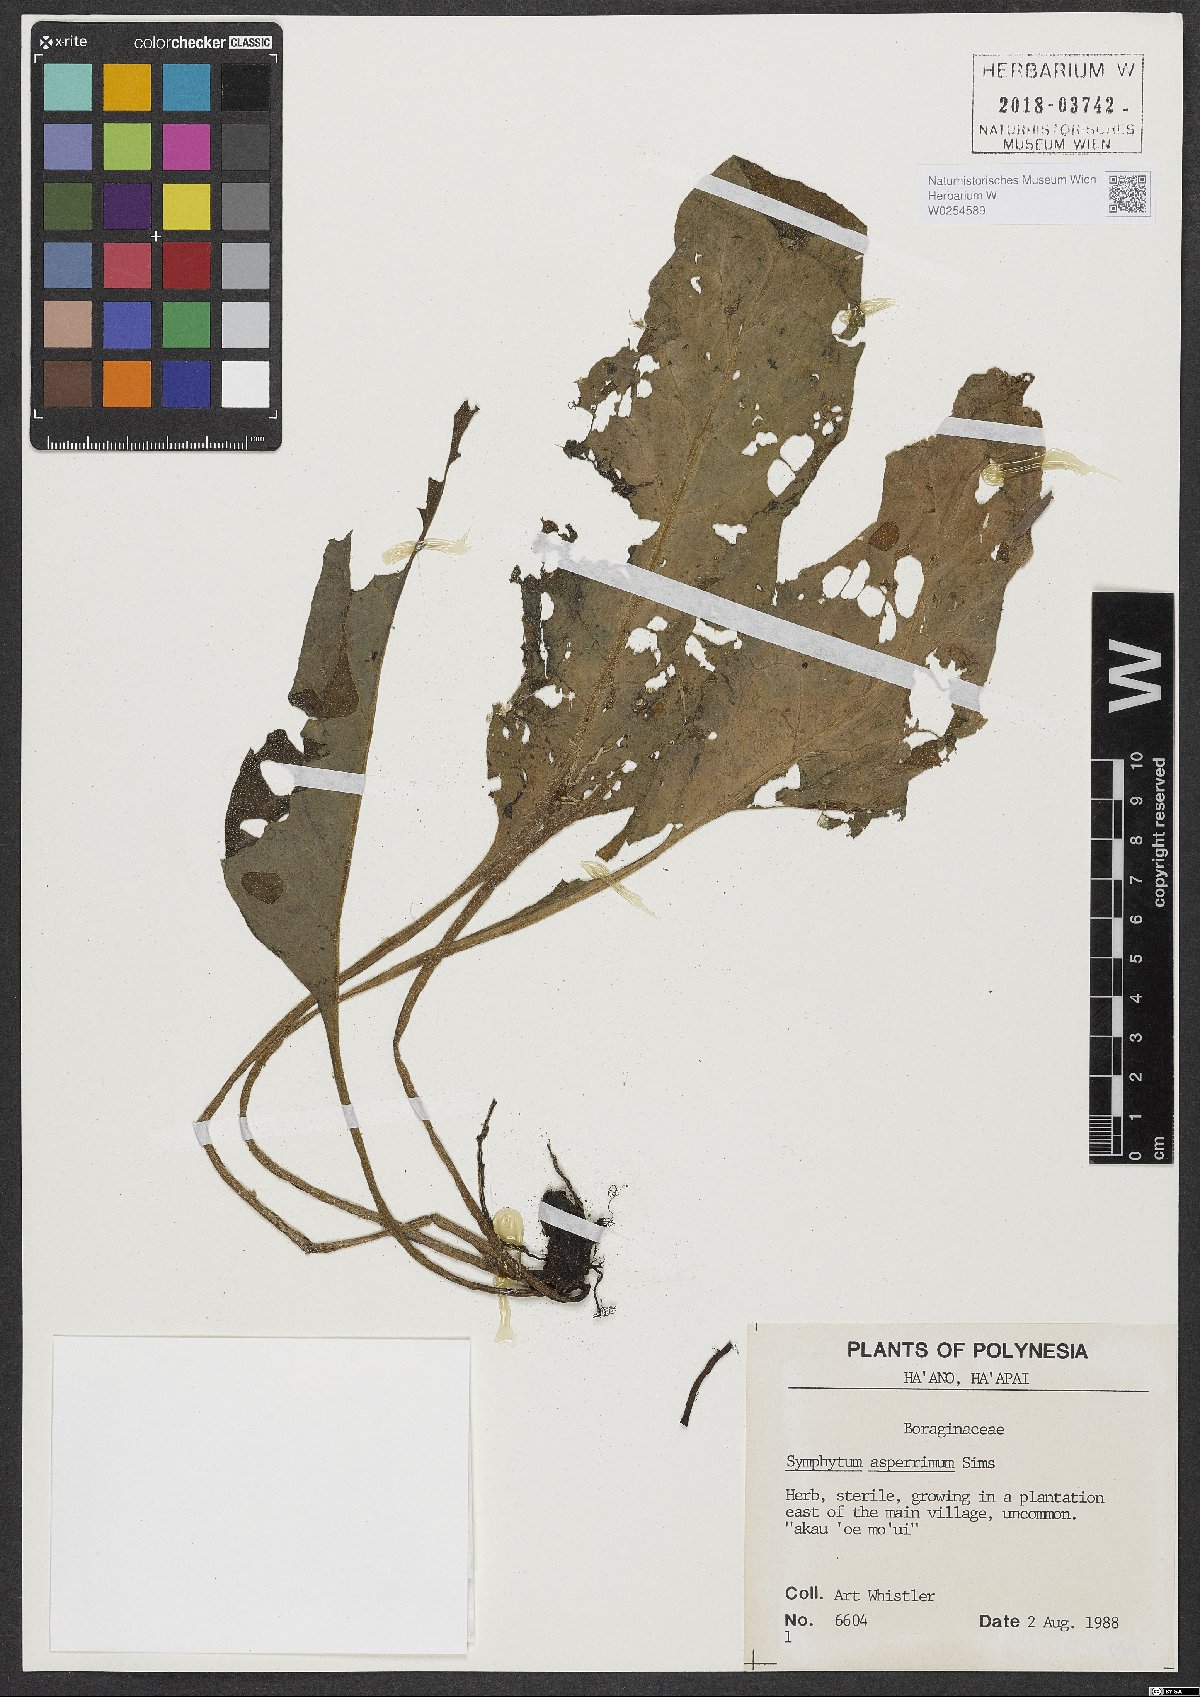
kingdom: Plantae
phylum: Tracheophyta
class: Magnoliopsida
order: Boraginales
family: Boraginaceae
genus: Symphytum
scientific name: Symphytum asperum
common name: Prickly comfrey
